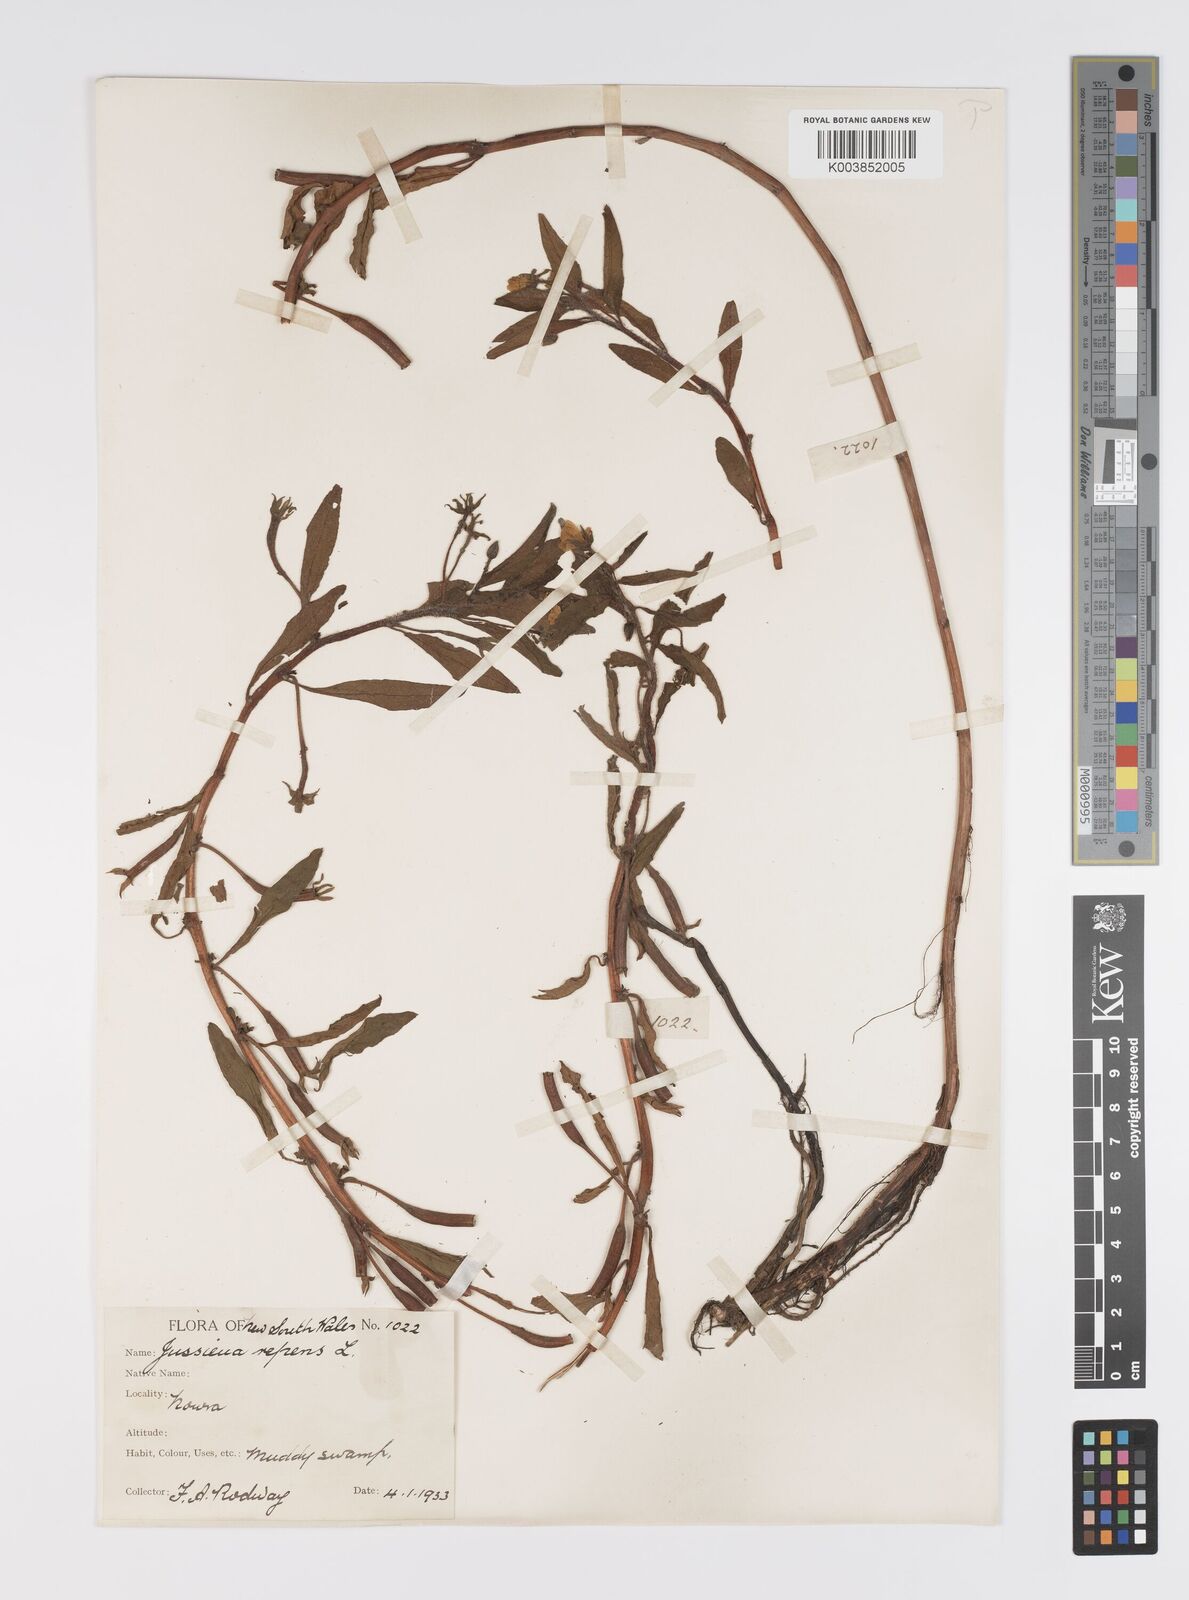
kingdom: Plantae
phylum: Tracheophyta
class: Magnoliopsida
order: Myrtales
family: Onagraceae
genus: Ludwigia
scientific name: Ludwigia peploides
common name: Floating primrose-willow
